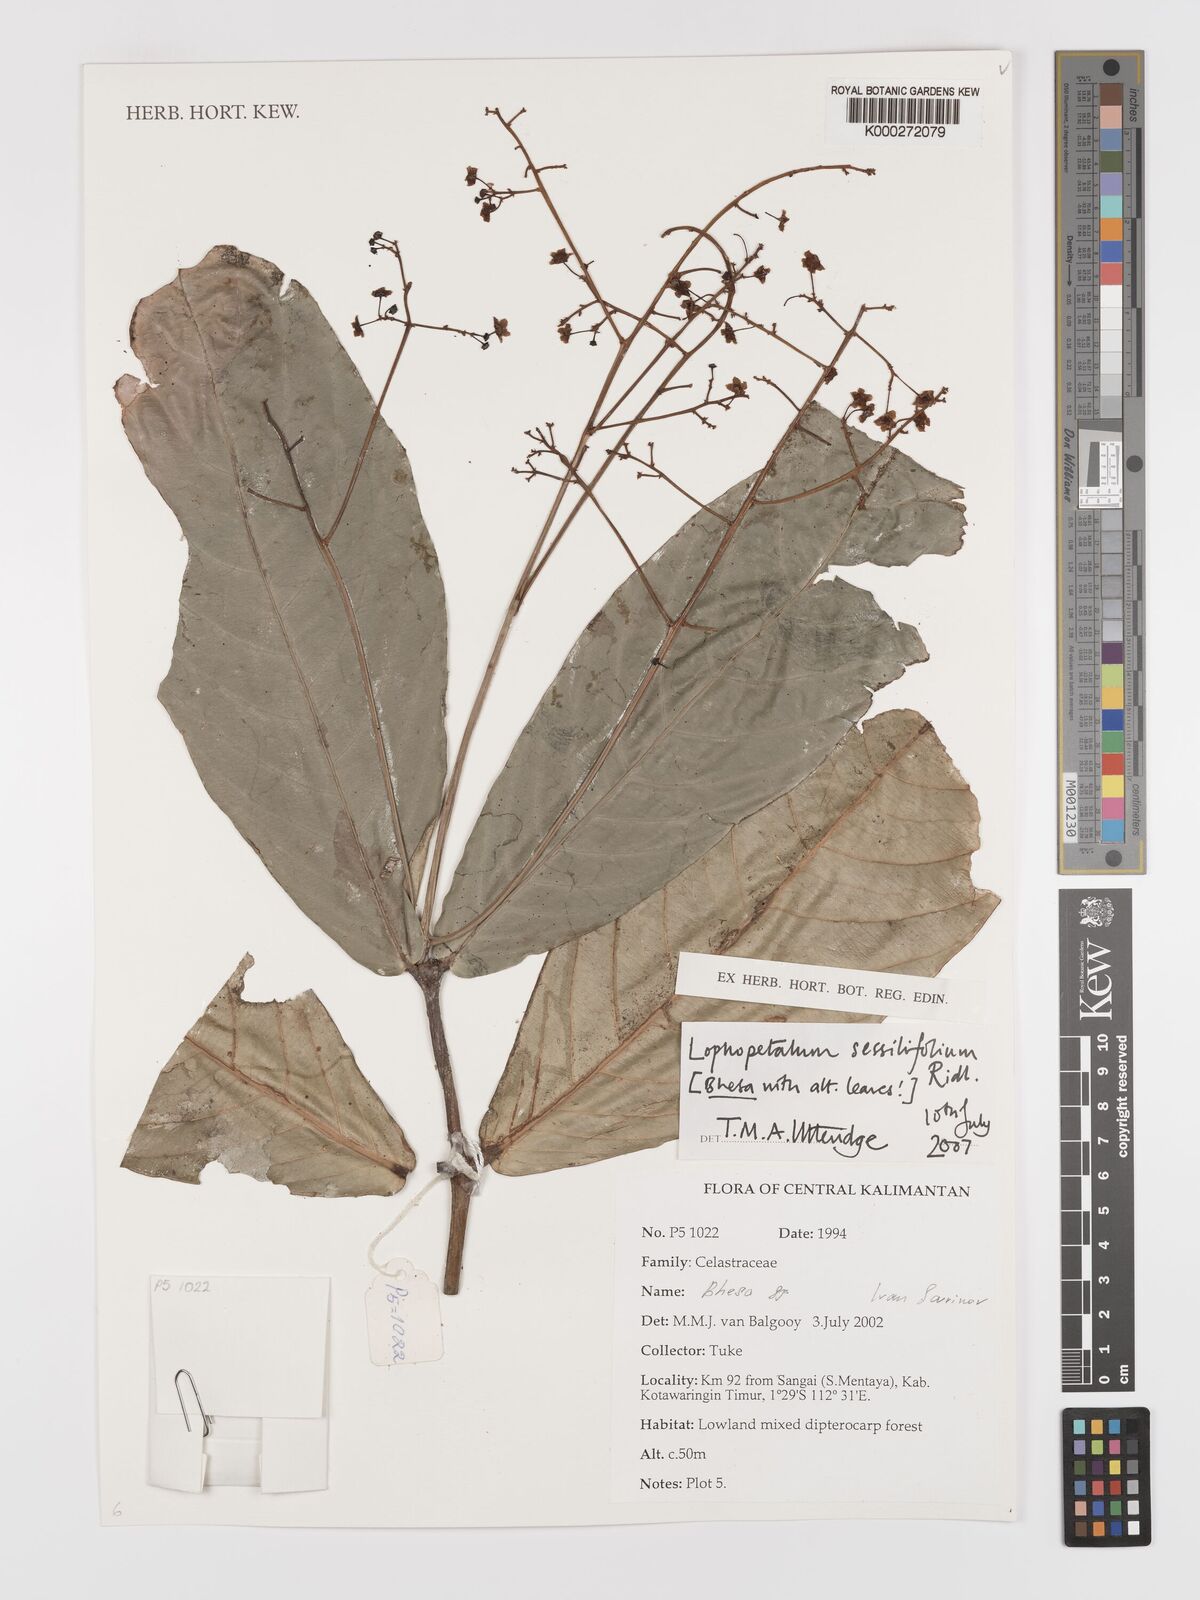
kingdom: Plantae
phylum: Tracheophyta
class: Magnoliopsida
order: Celastrales
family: Celastraceae
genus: Lophopetalum
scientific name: Lophopetalum sessilifolium
